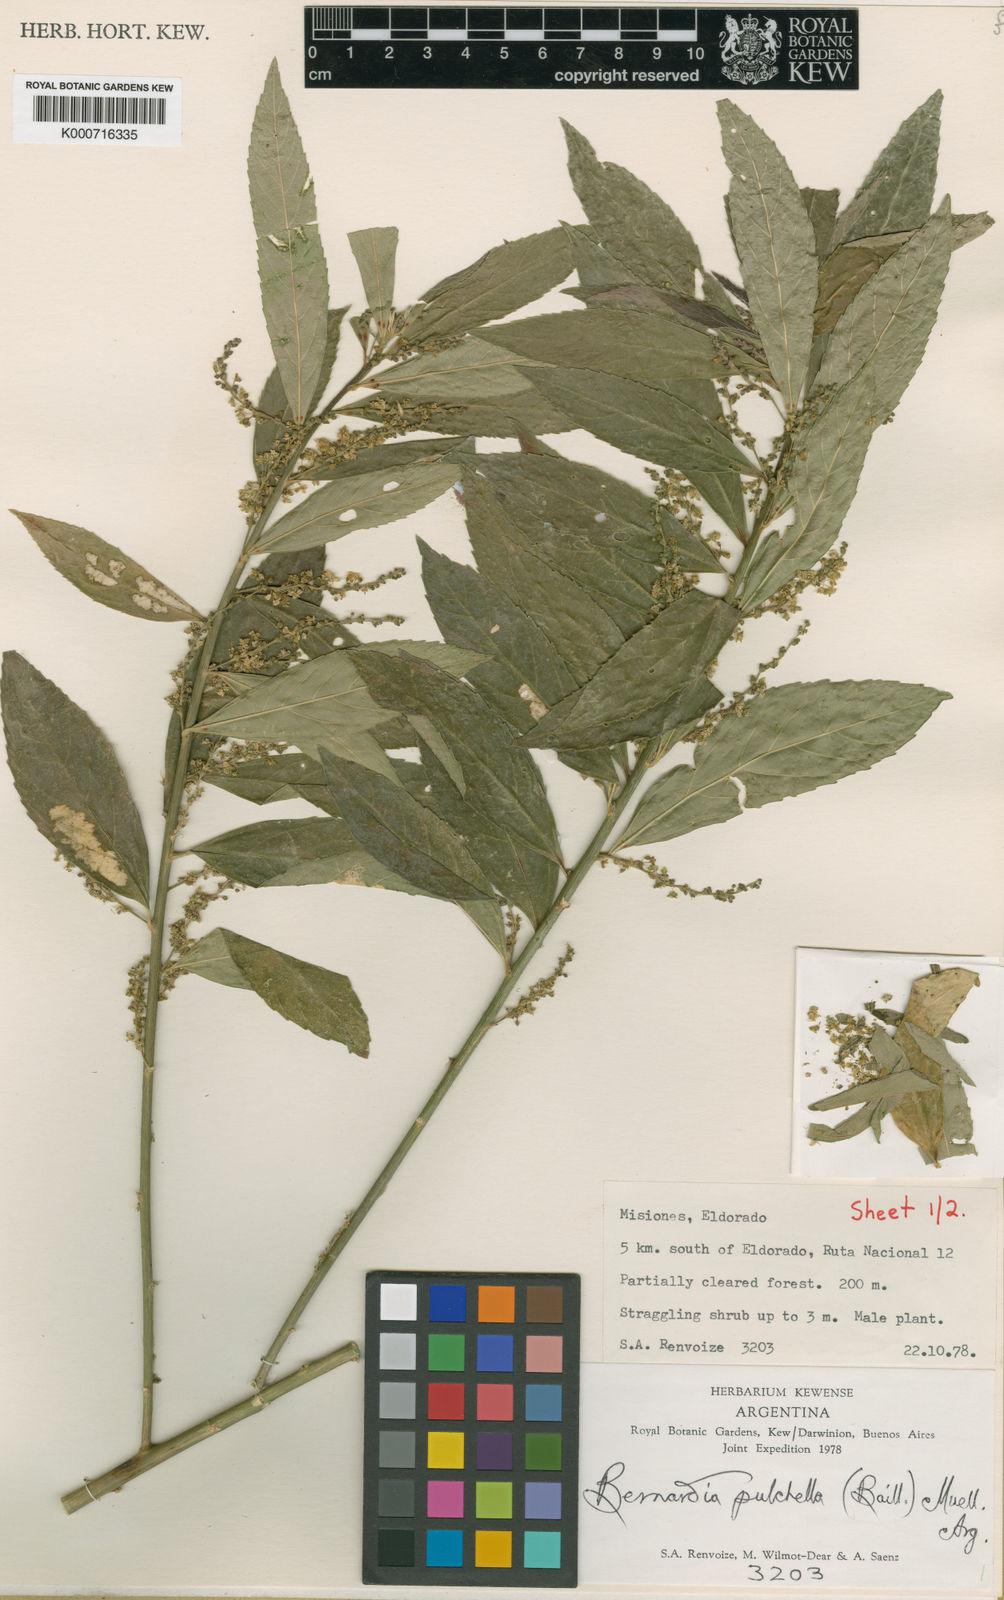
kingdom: Plantae
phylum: Tracheophyta
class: Magnoliopsida
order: Malpighiales
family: Euphorbiaceae
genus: Bernardia
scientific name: Bernardia
